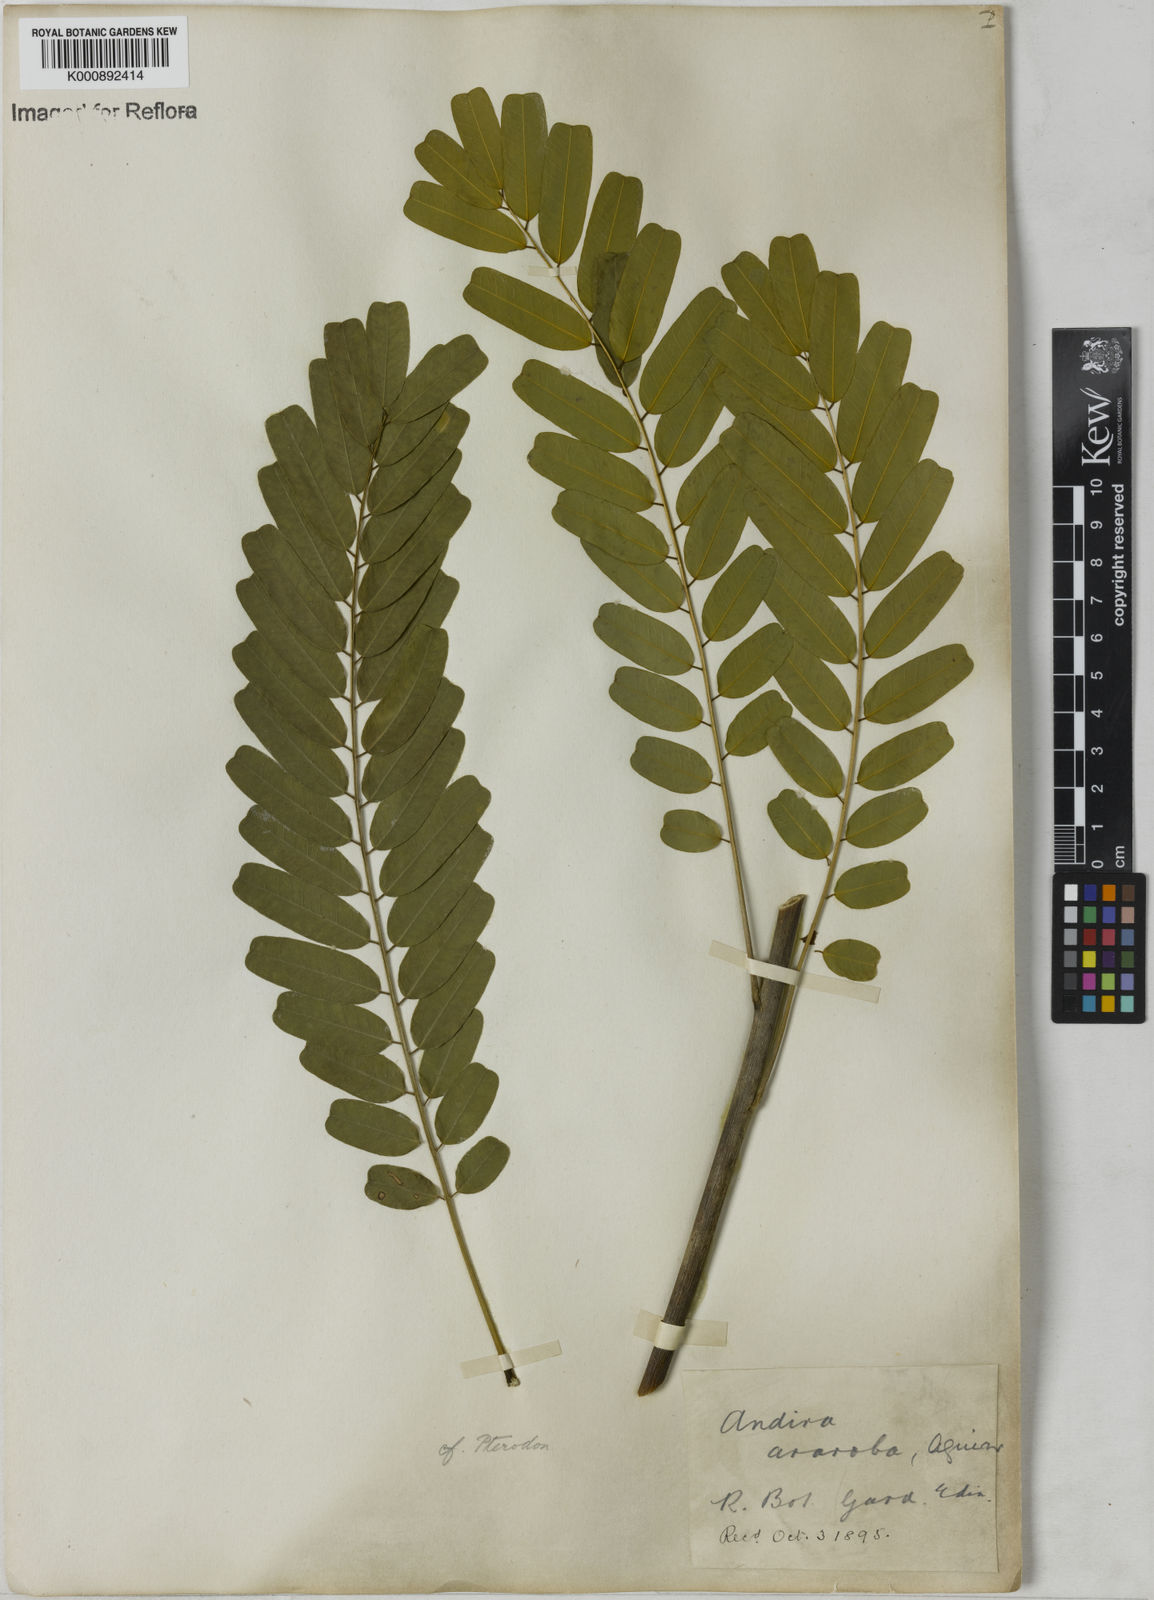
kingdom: Plantae
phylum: Tracheophyta
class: Magnoliopsida
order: Fabales
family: Fabaceae
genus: Vataireopsis
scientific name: Vataireopsis araroba
